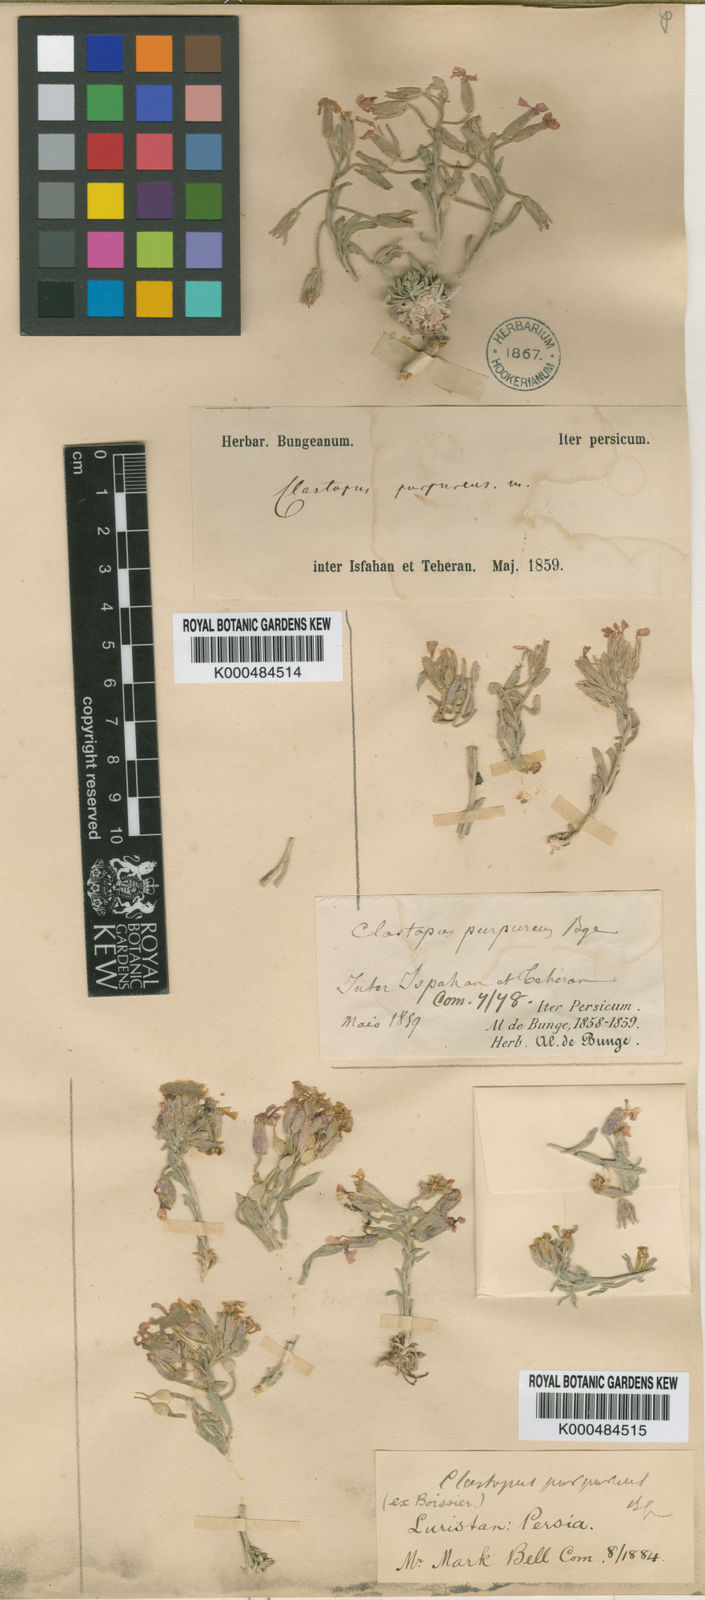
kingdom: Plantae
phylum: Tracheophyta
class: Magnoliopsida
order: Brassicales
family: Brassicaceae
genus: Clastopus
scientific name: Clastopus
